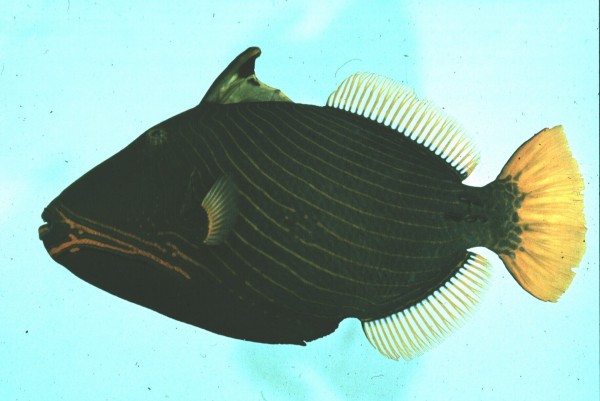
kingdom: Animalia
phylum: Chordata
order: Tetraodontiformes
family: Balistidae
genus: Balistapus
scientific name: Balistapus undulatus
